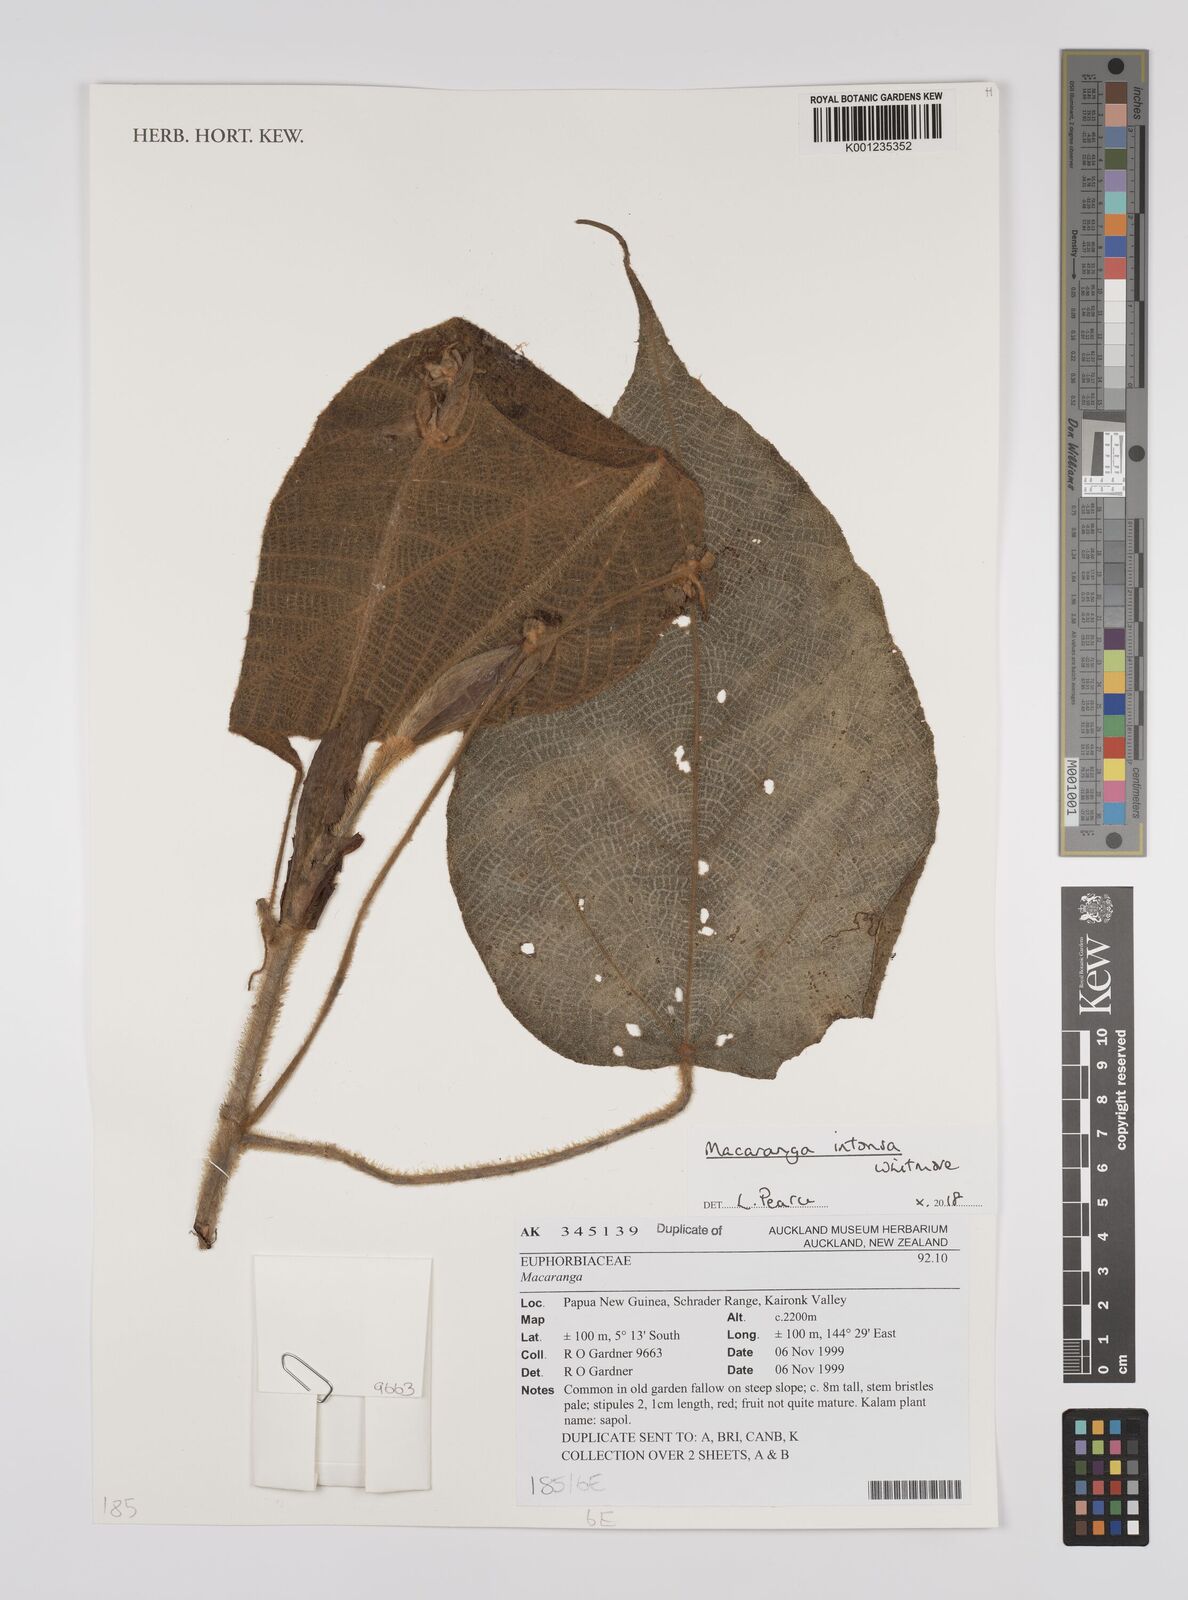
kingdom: Plantae
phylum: Tracheophyta
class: Magnoliopsida
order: Malpighiales
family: Euphorbiaceae
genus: Macaranga
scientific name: Macaranga intonsa
